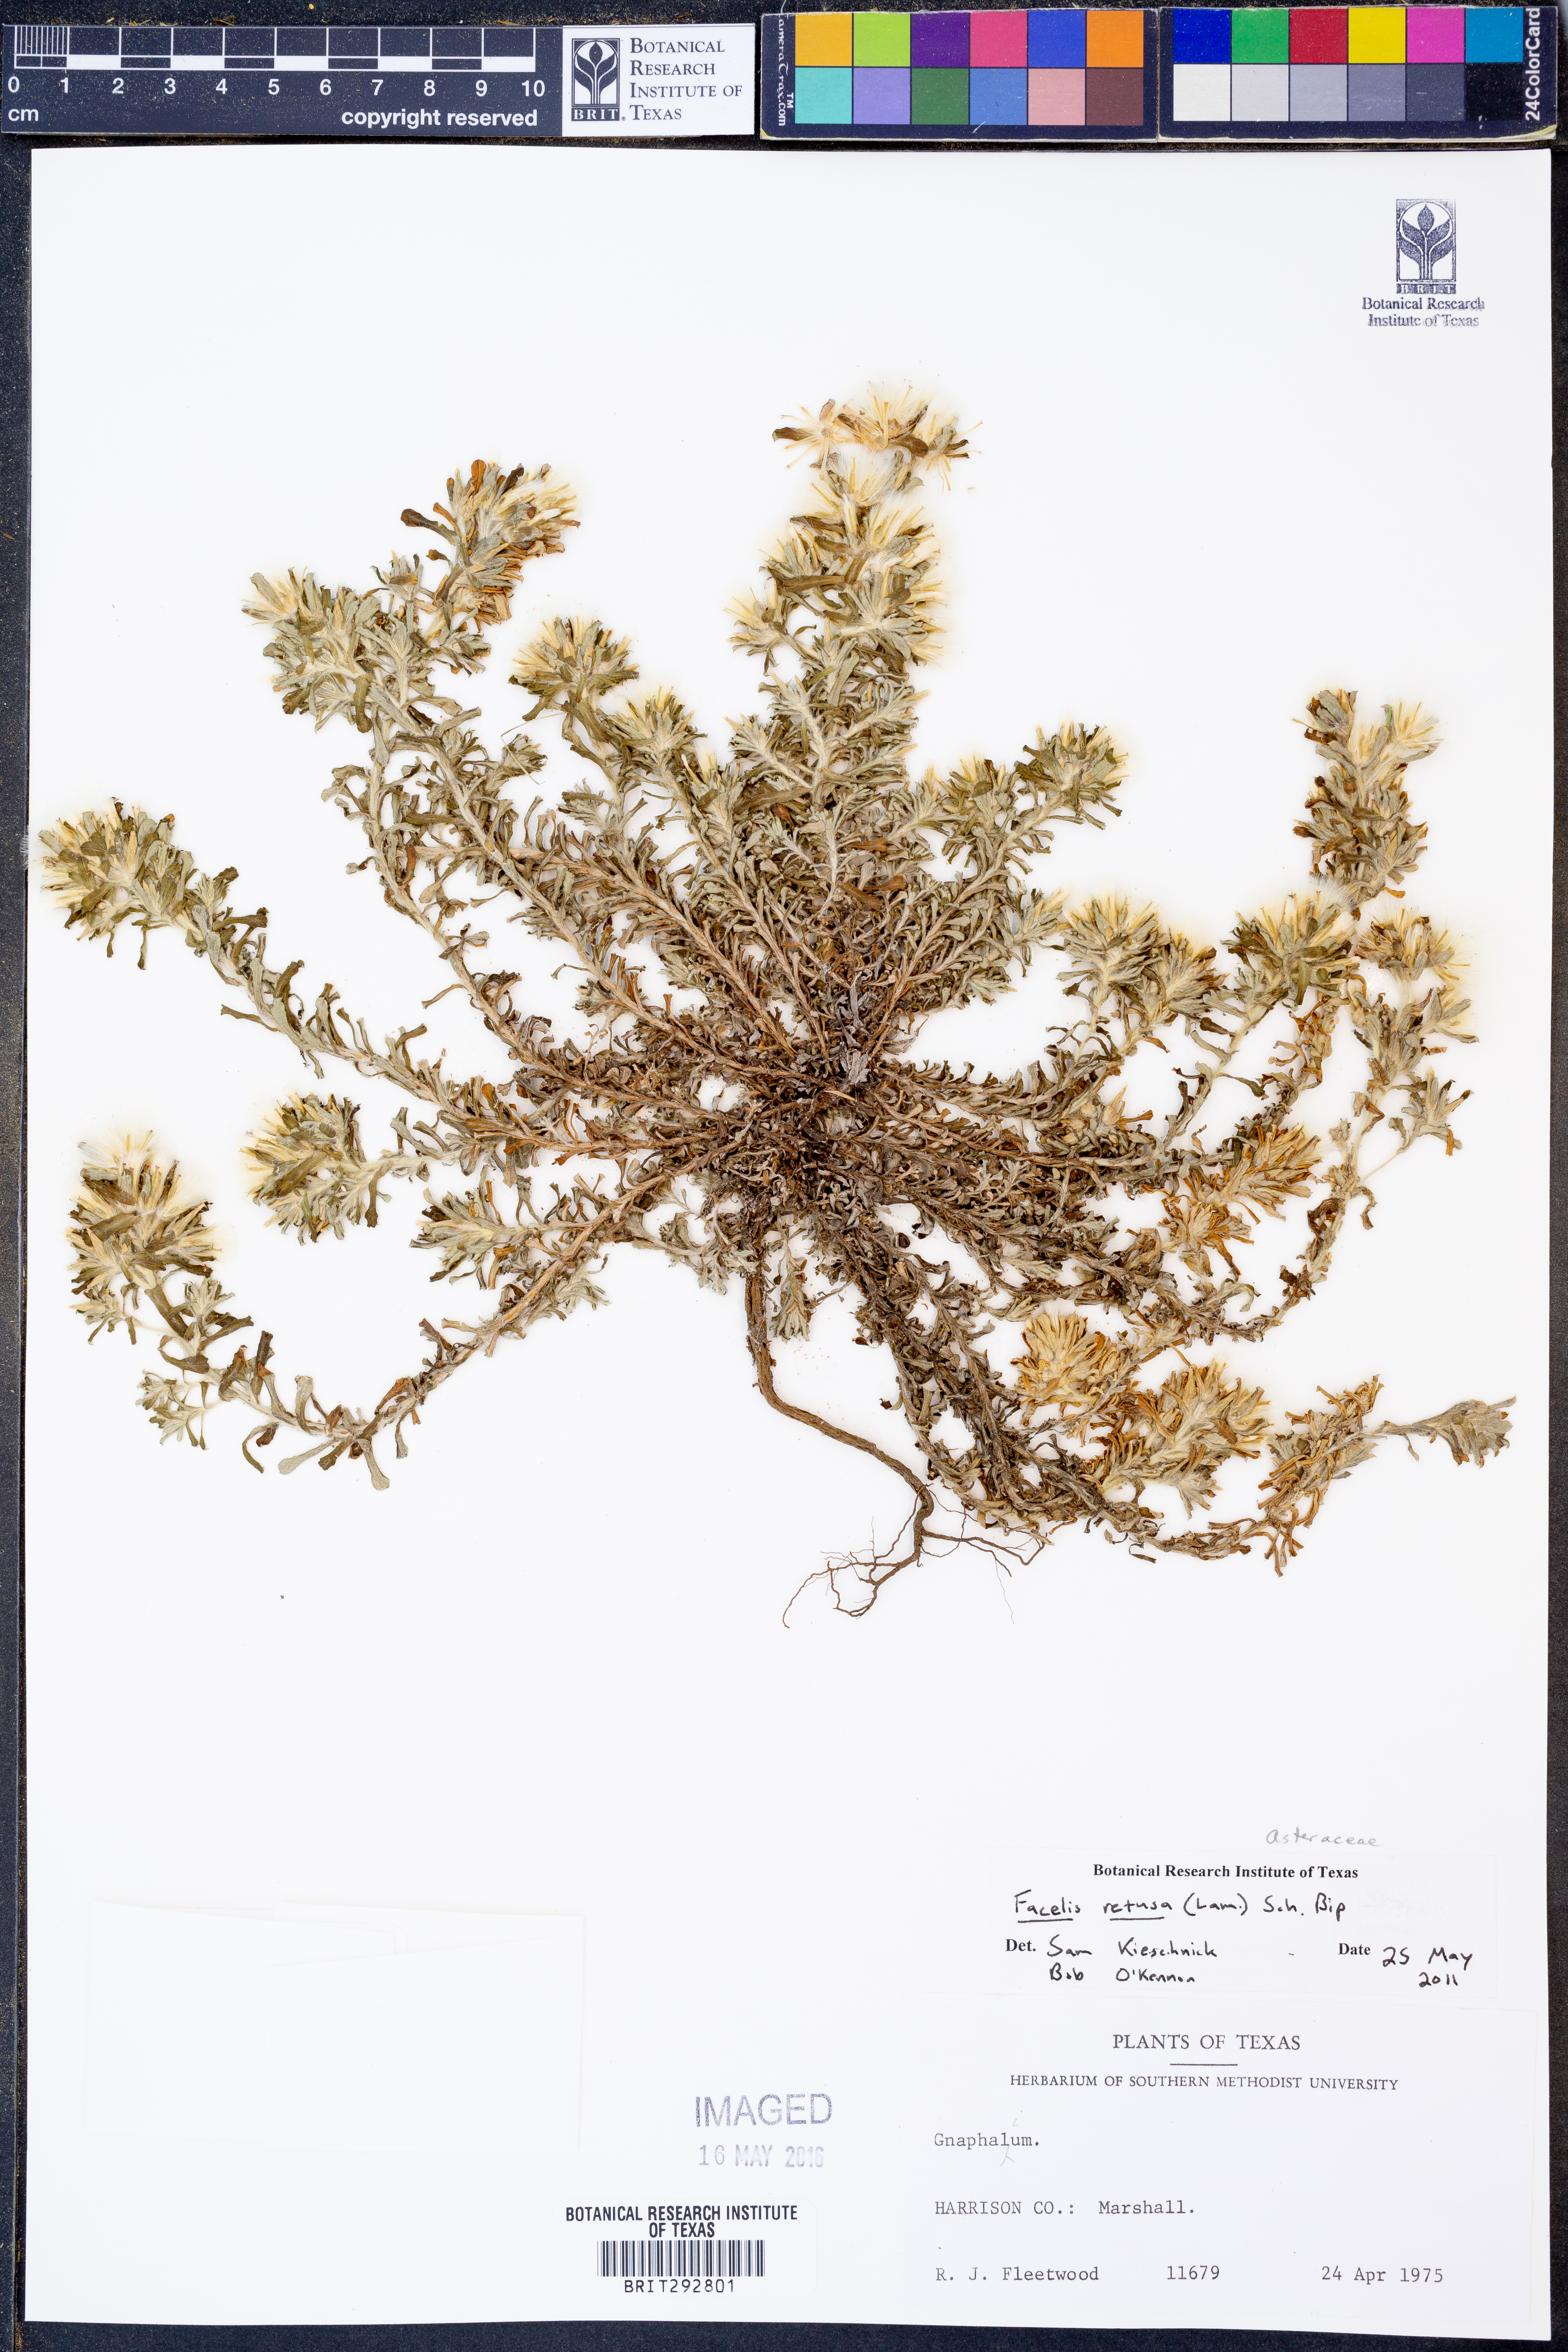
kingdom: Plantae
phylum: Tracheophyta
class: Magnoliopsida
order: Asterales
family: Asteraceae
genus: Facelis
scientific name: Facelis retusa
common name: Annual trampweed
